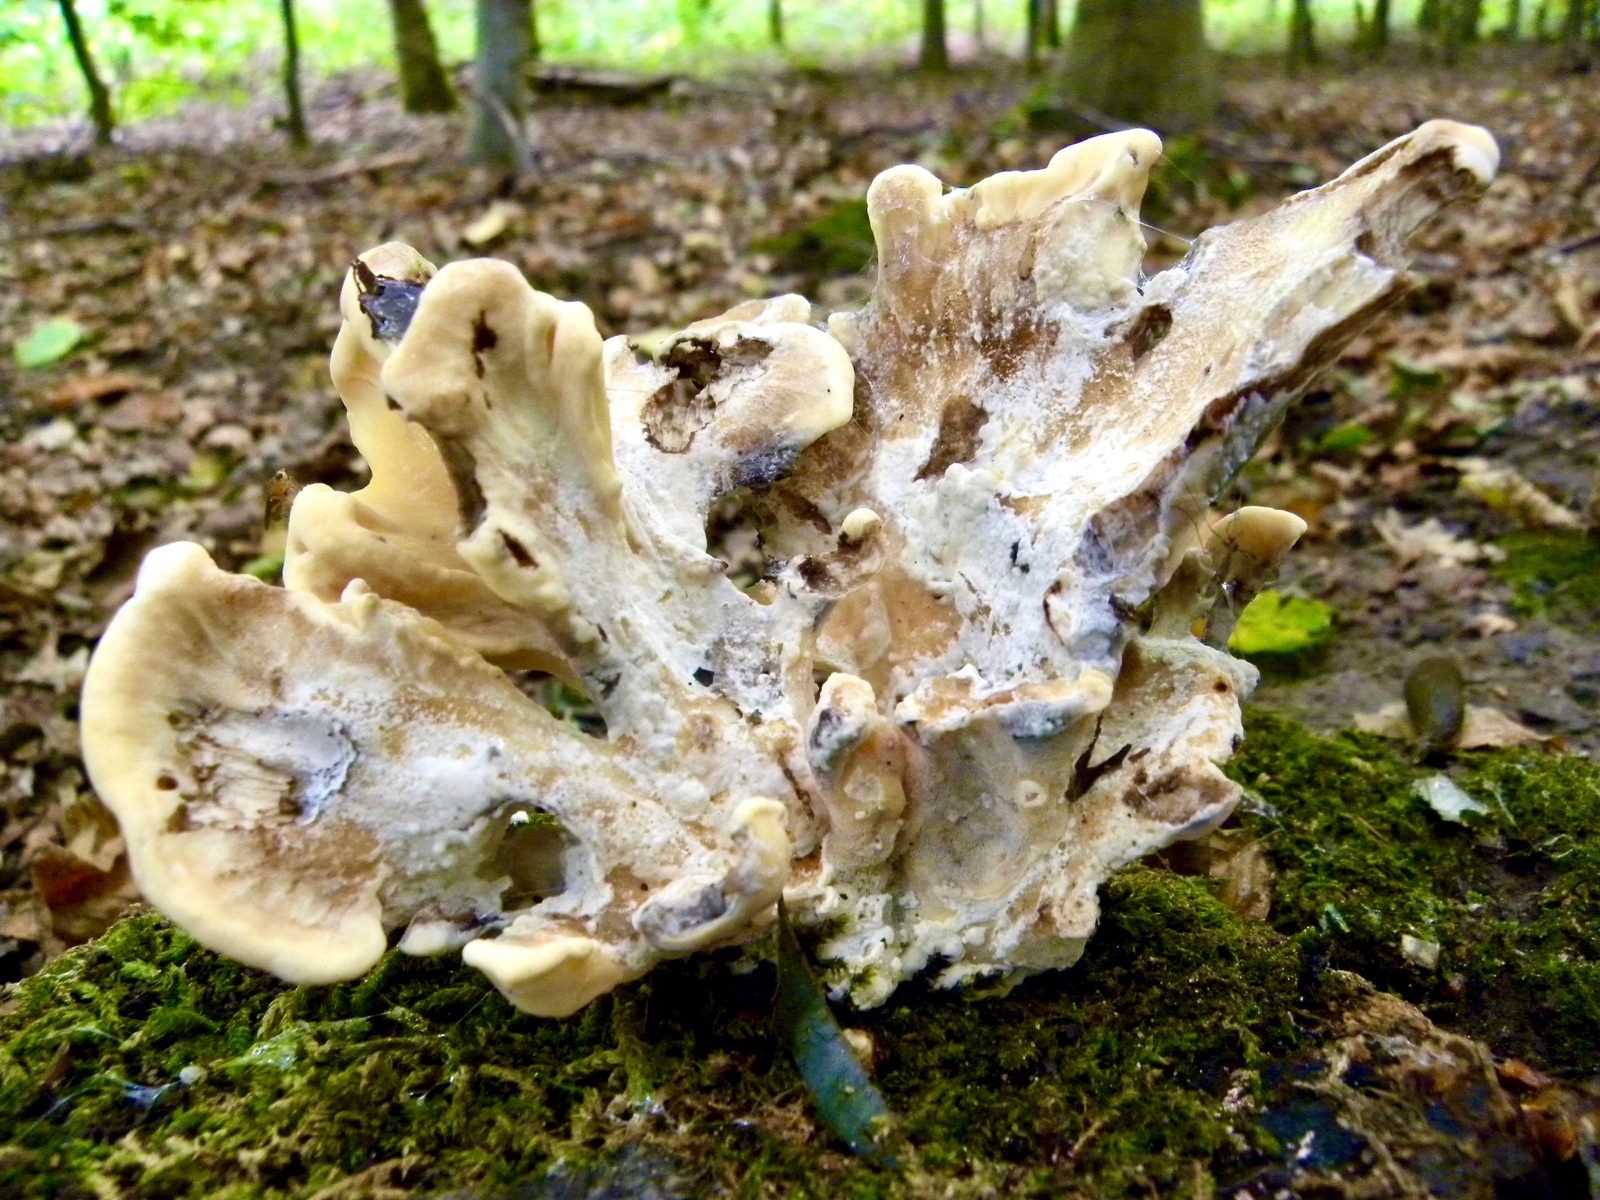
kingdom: Fungi
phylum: Basidiomycota
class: Agaricomycetes
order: Polyporales
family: Meripilaceae
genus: Meripilus
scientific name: Meripilus giganteus
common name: kæmpeporesvamp
